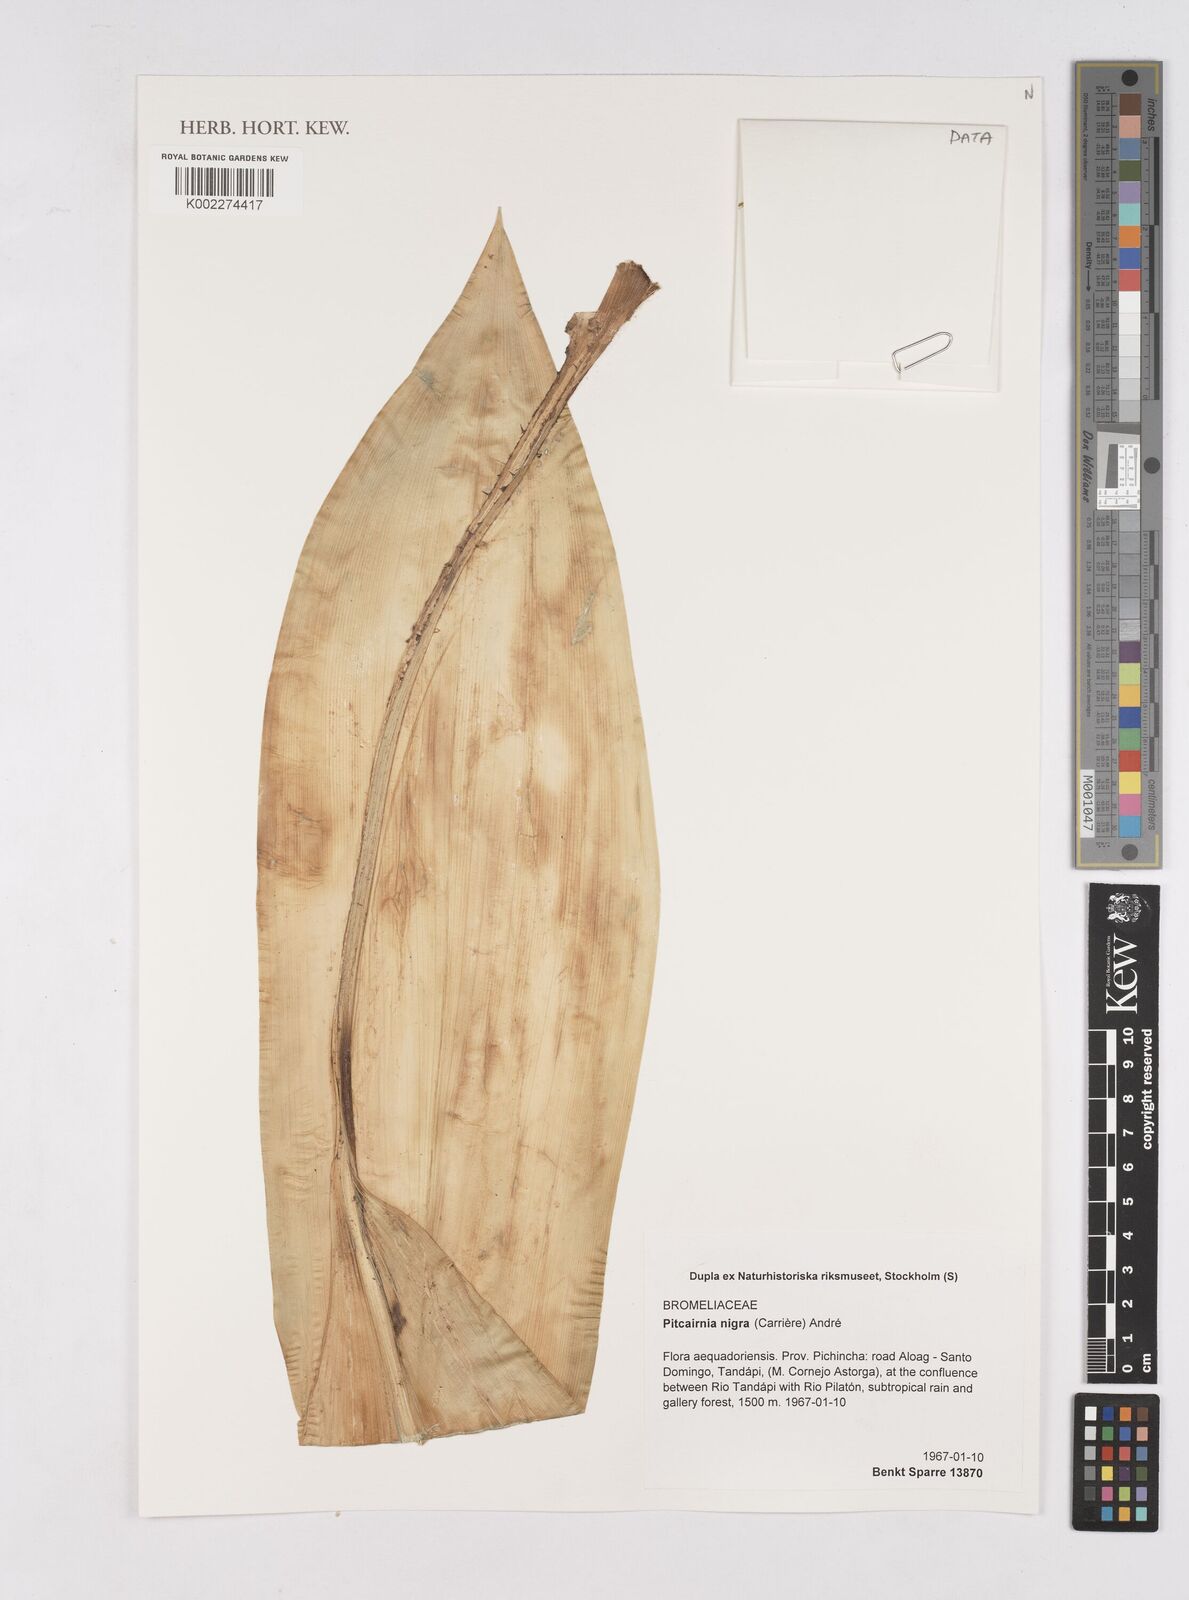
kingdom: Plantae
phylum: Tracheophyta
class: Liliopsida
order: Poales
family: Bromeliaceae
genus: Pitcairnia
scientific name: Pitcairnia nigra
